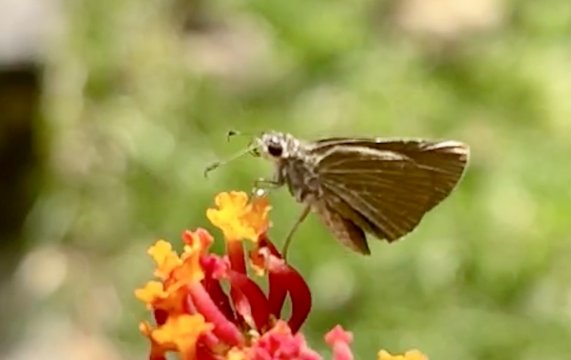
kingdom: Animalia
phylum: Arthropoda
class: Insecta
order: Lepidoptera
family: Hesperiidae
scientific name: Hesperiidae
